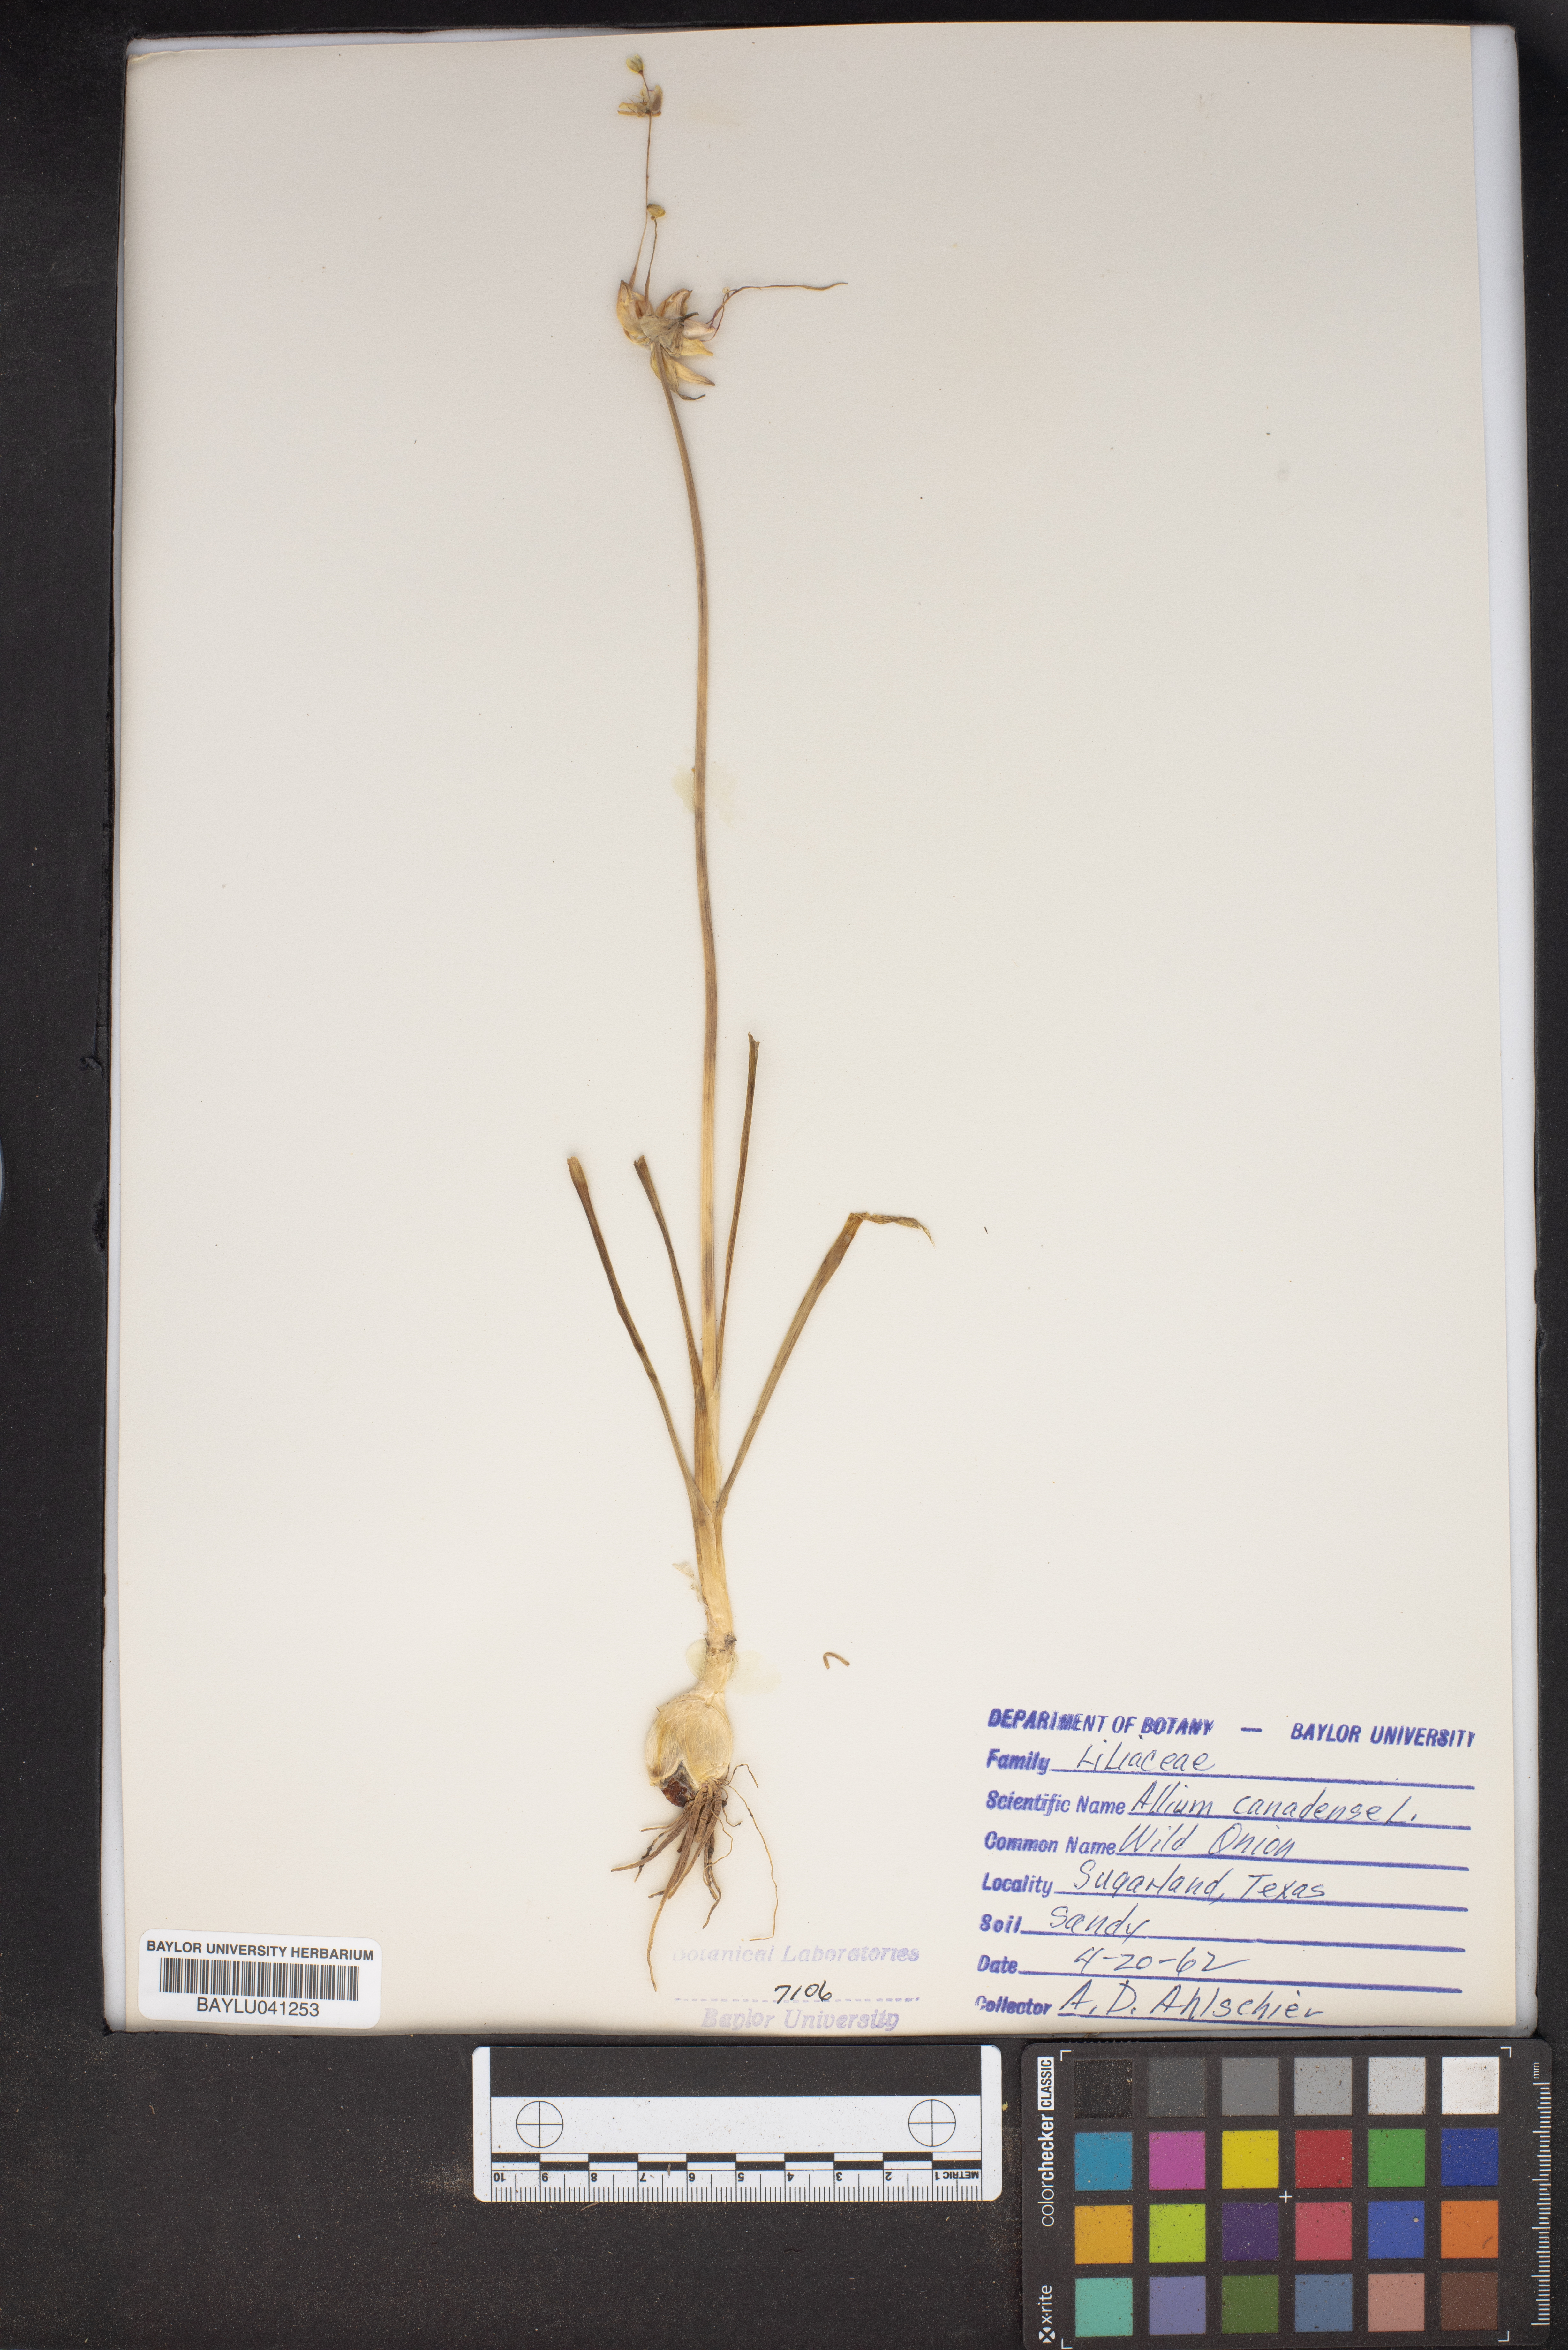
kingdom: Plantae
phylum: Tracheophyta
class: Liliopsida
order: Asparagales
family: Amaryllidaceae
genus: Allium
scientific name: Allium canadense
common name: Meadow garlic
